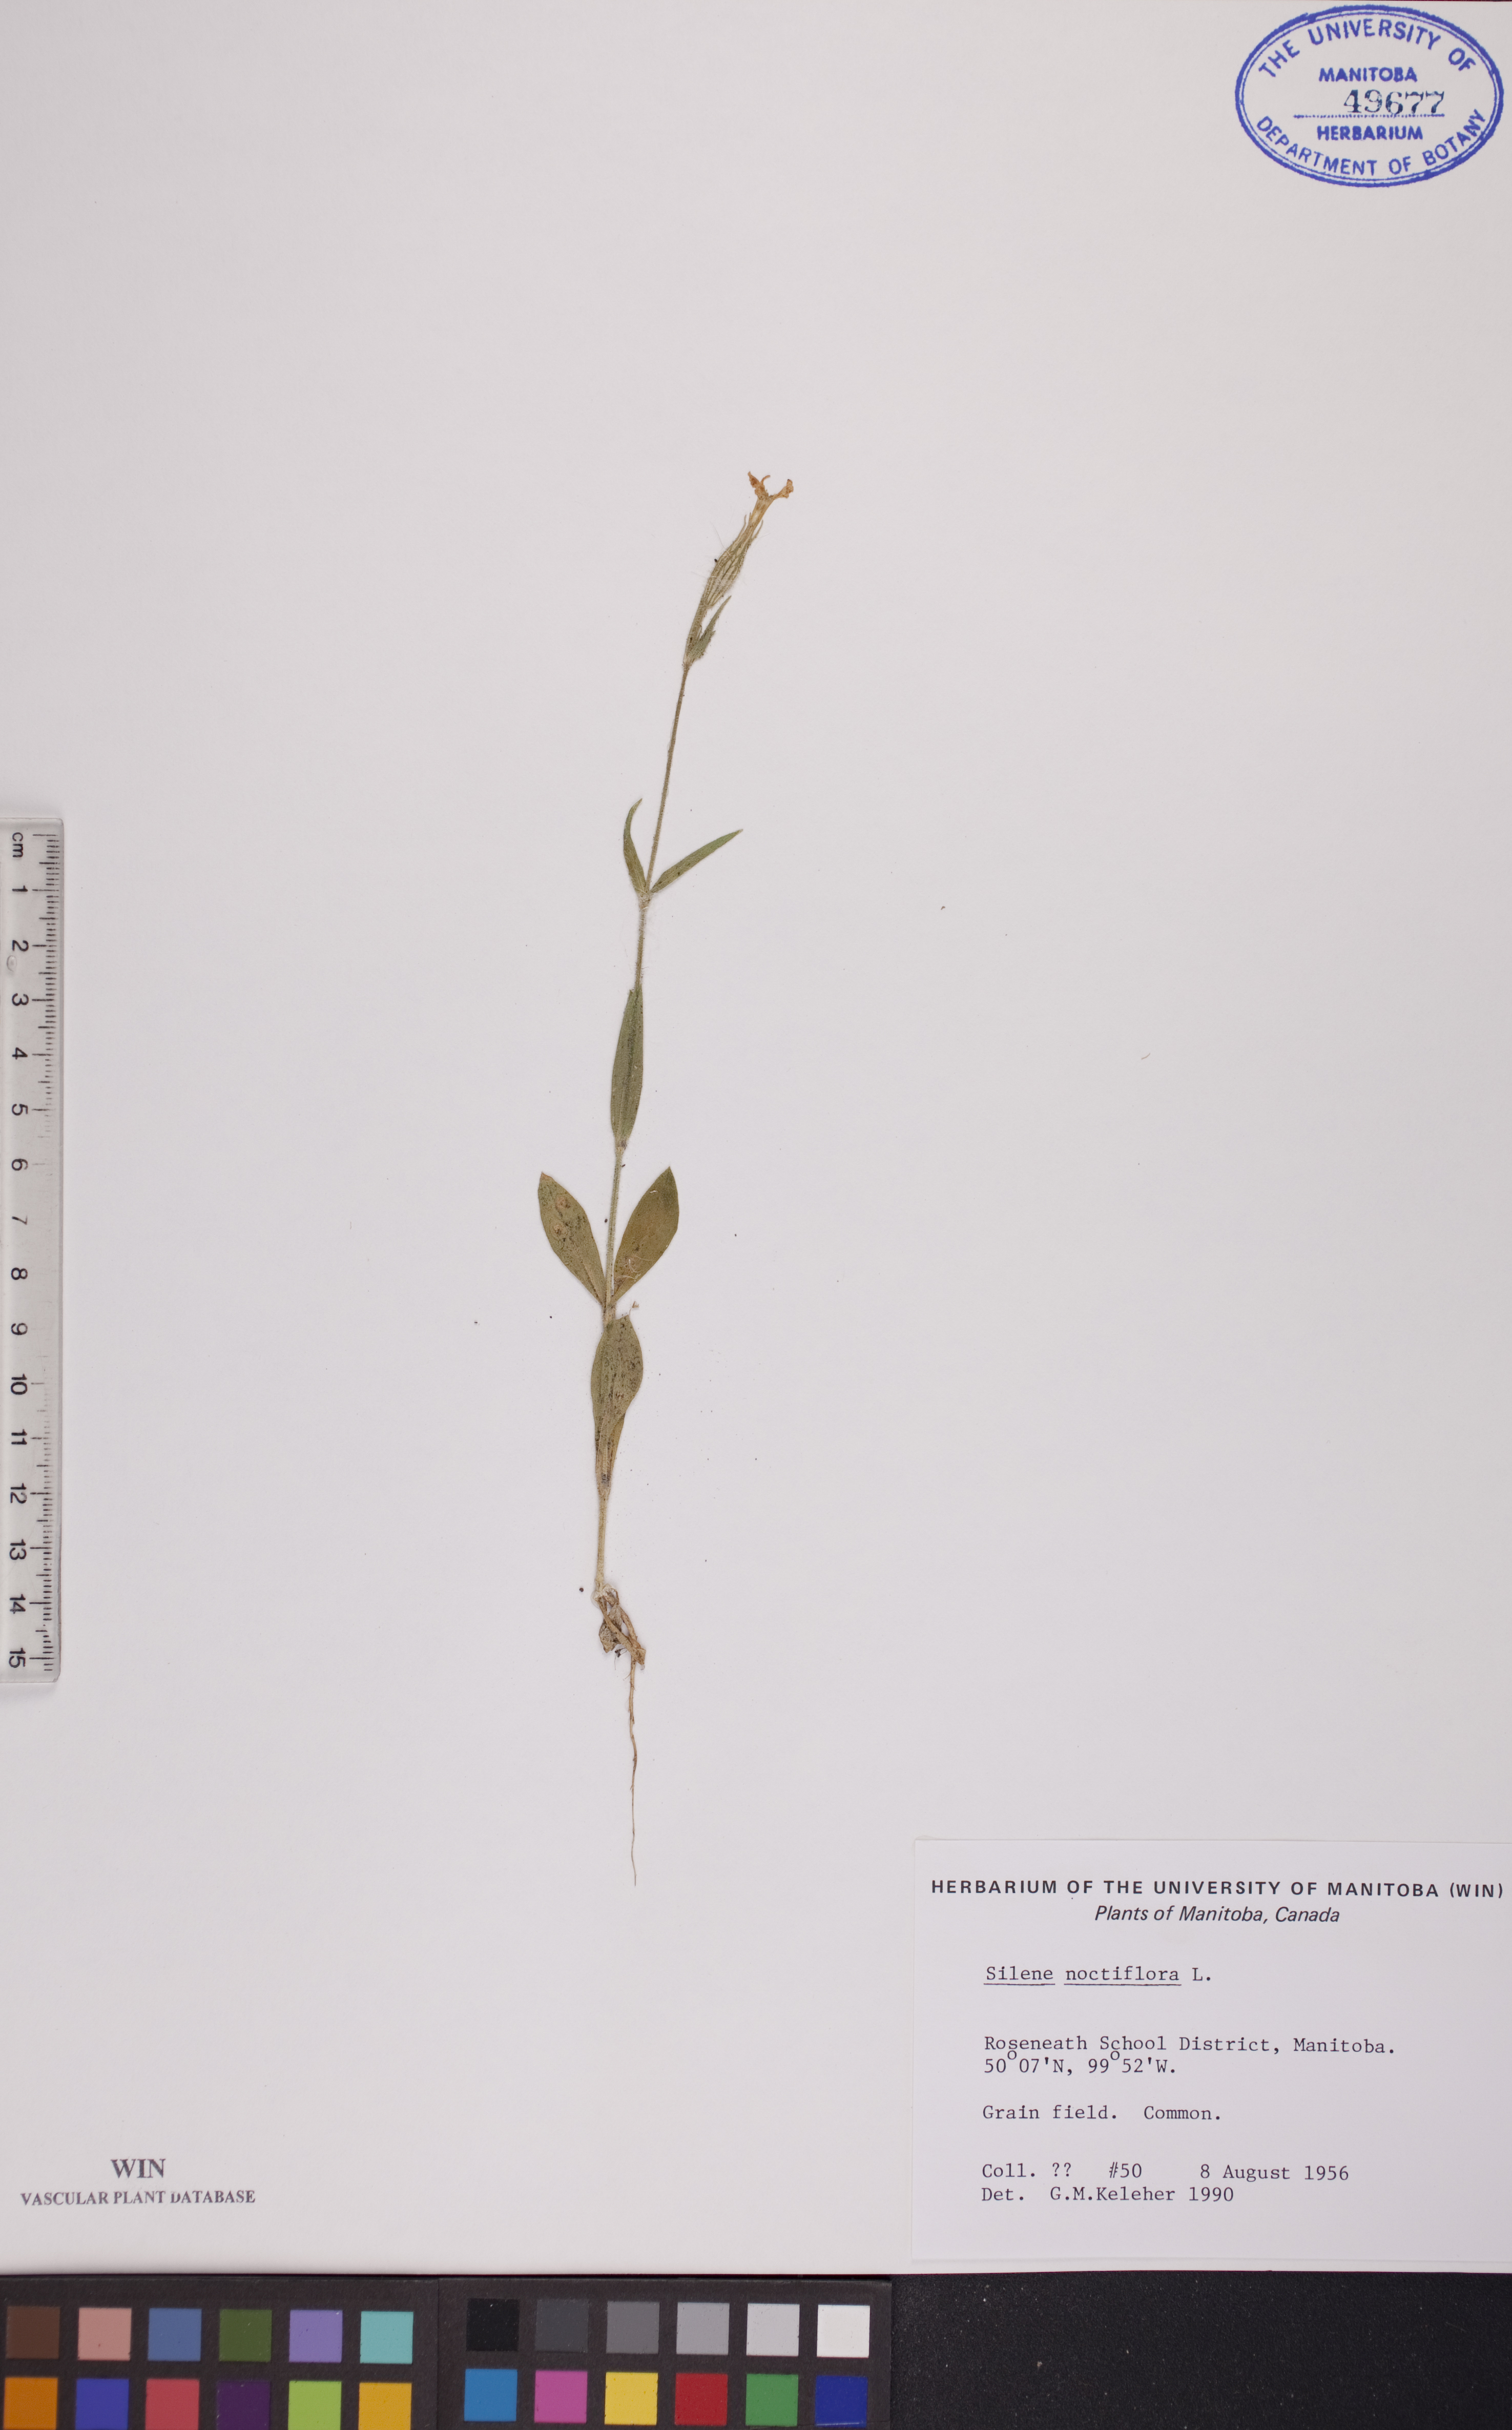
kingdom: Plantae
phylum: Tracheophyta
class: Magnoliopsida
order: Caryophyllales
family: Caryophyllaceae
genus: Silene
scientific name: Silene noctiflora
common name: Night-flowering catchfly
